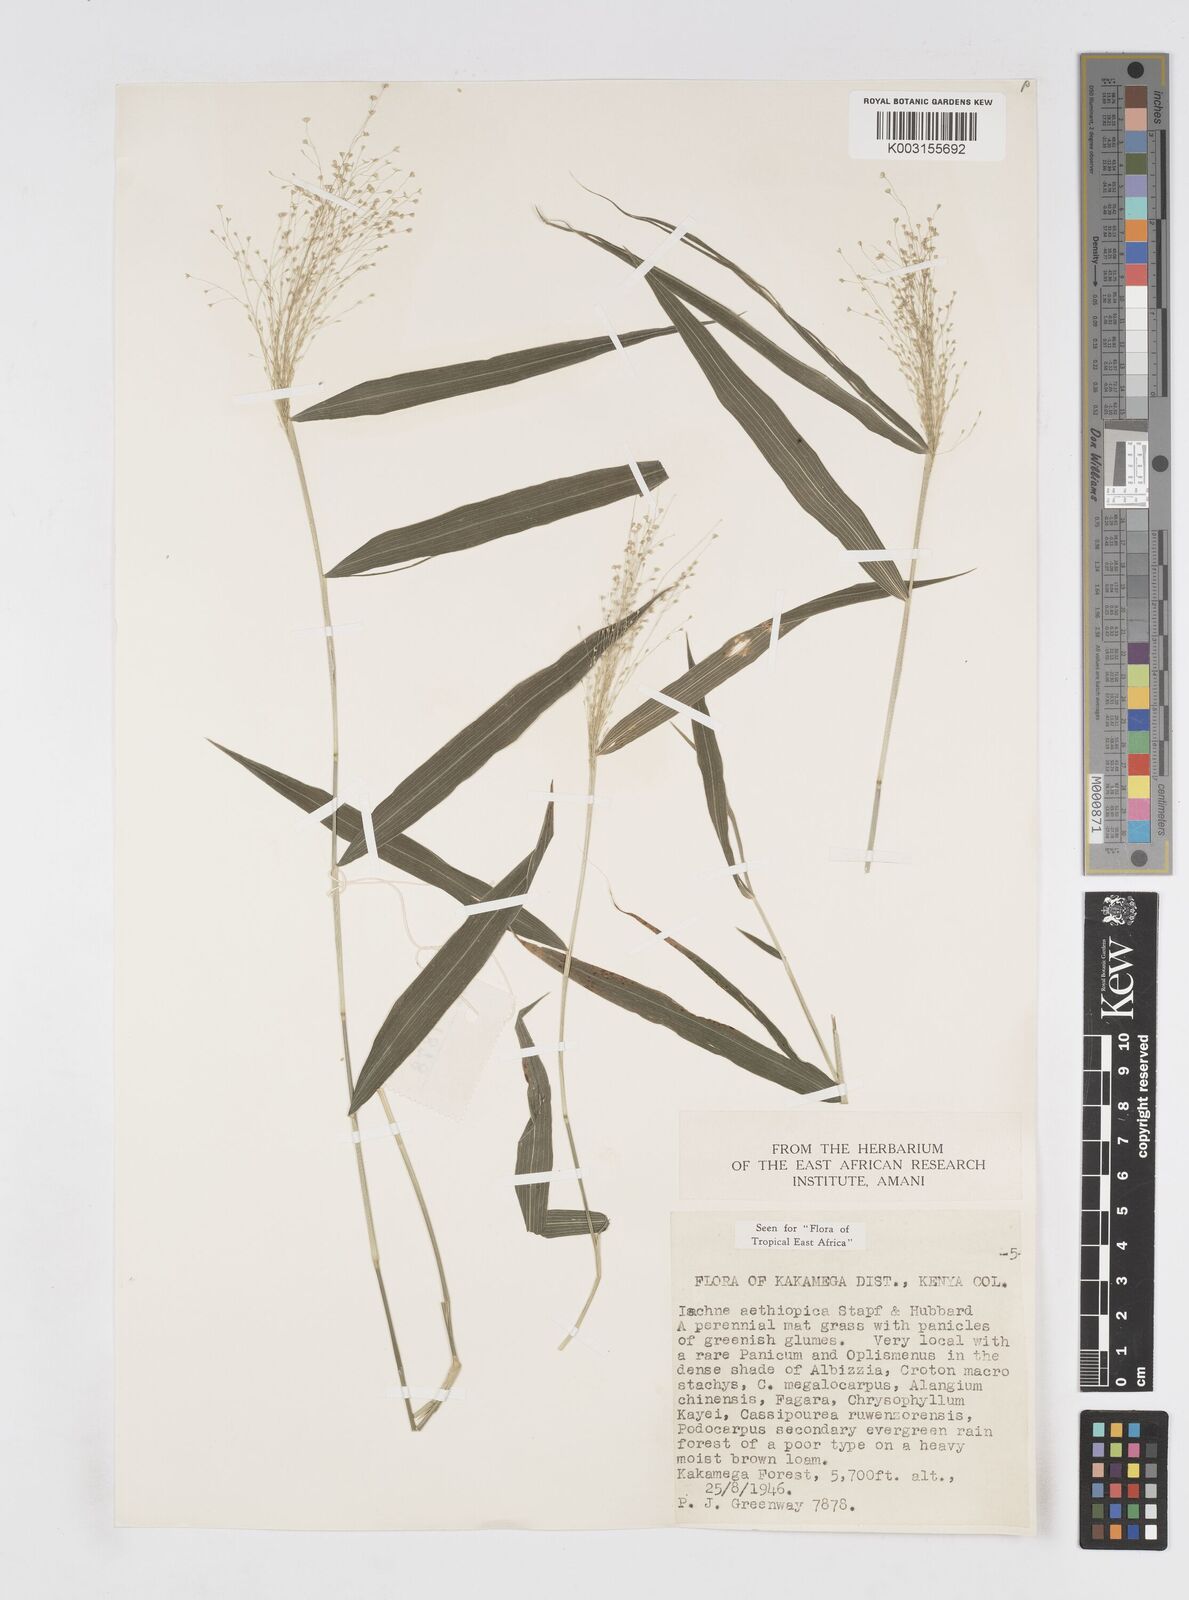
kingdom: Plantae
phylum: Tracheophyta
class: Liliopsida
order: Poales
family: Poaceae
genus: Isachne
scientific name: Isachne mauritiana
